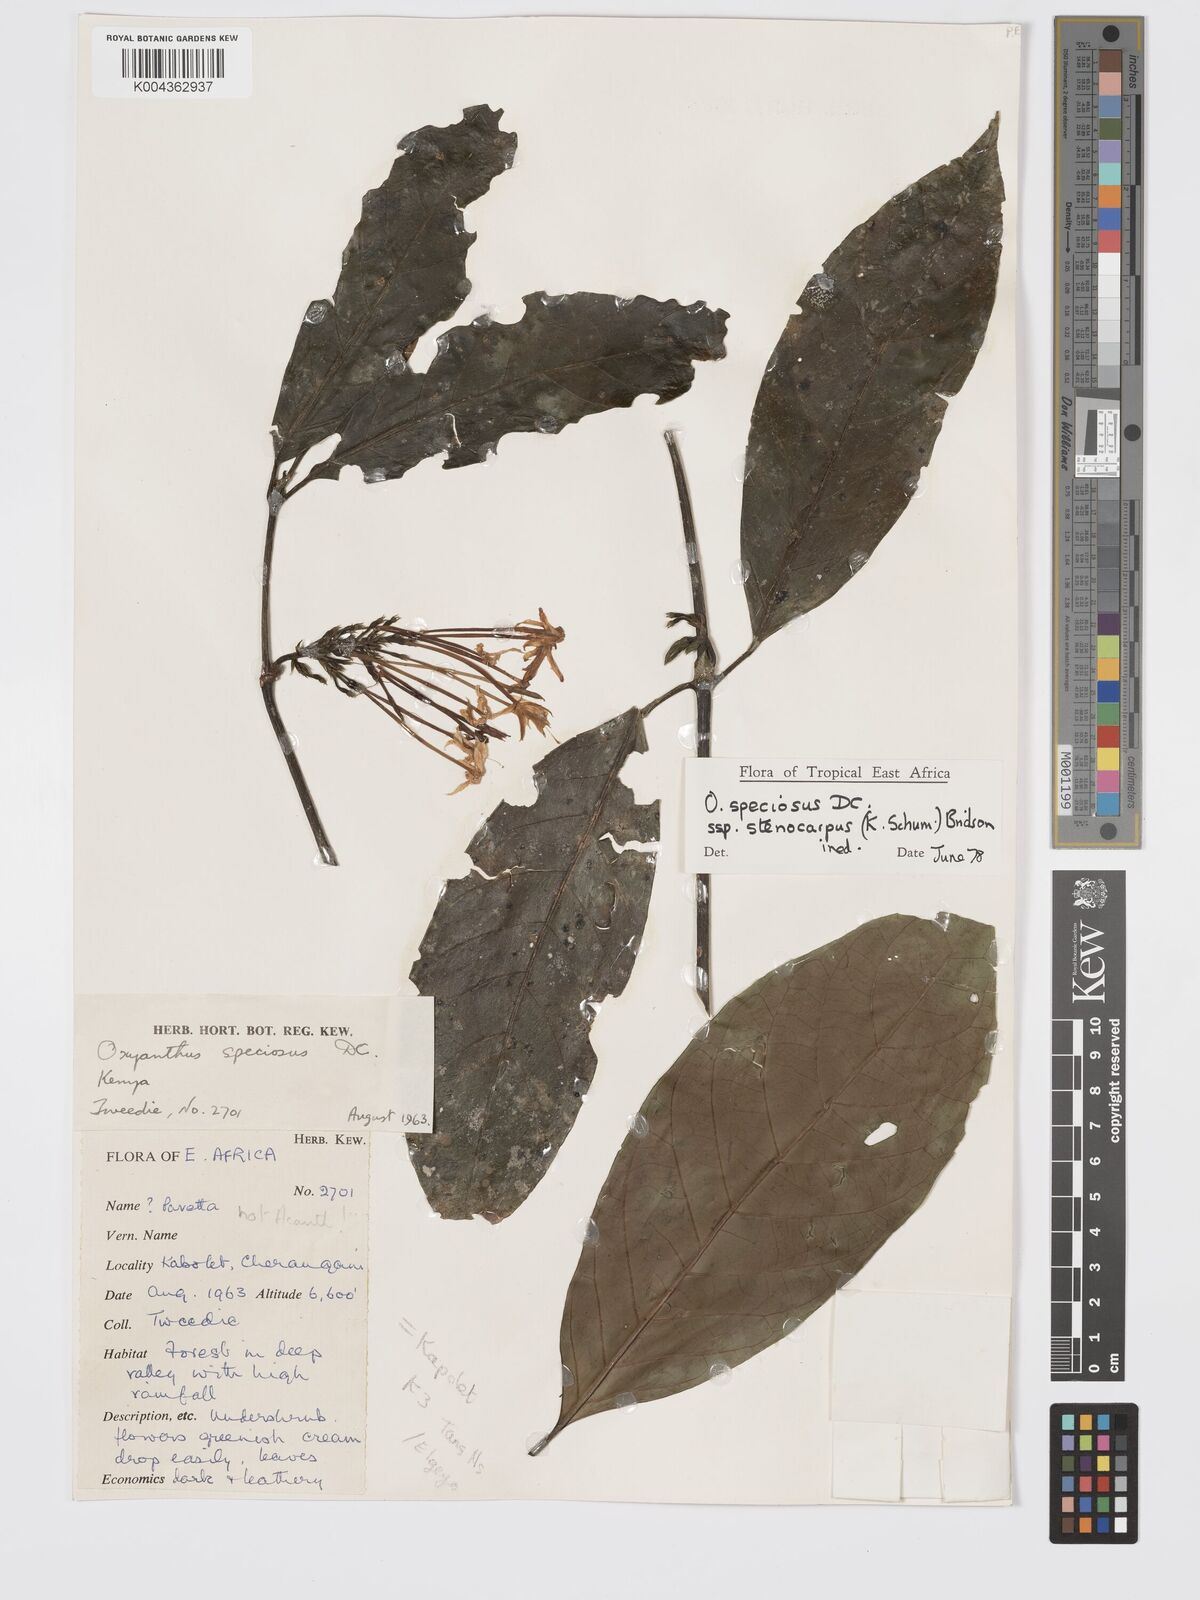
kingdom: Plantae
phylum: Tracheophyta
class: Magnoliopsida
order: Gentianales
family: Rubiaceae
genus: Oxyanthus
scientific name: Oxyanthus speciosus
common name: Whipstick loquat
